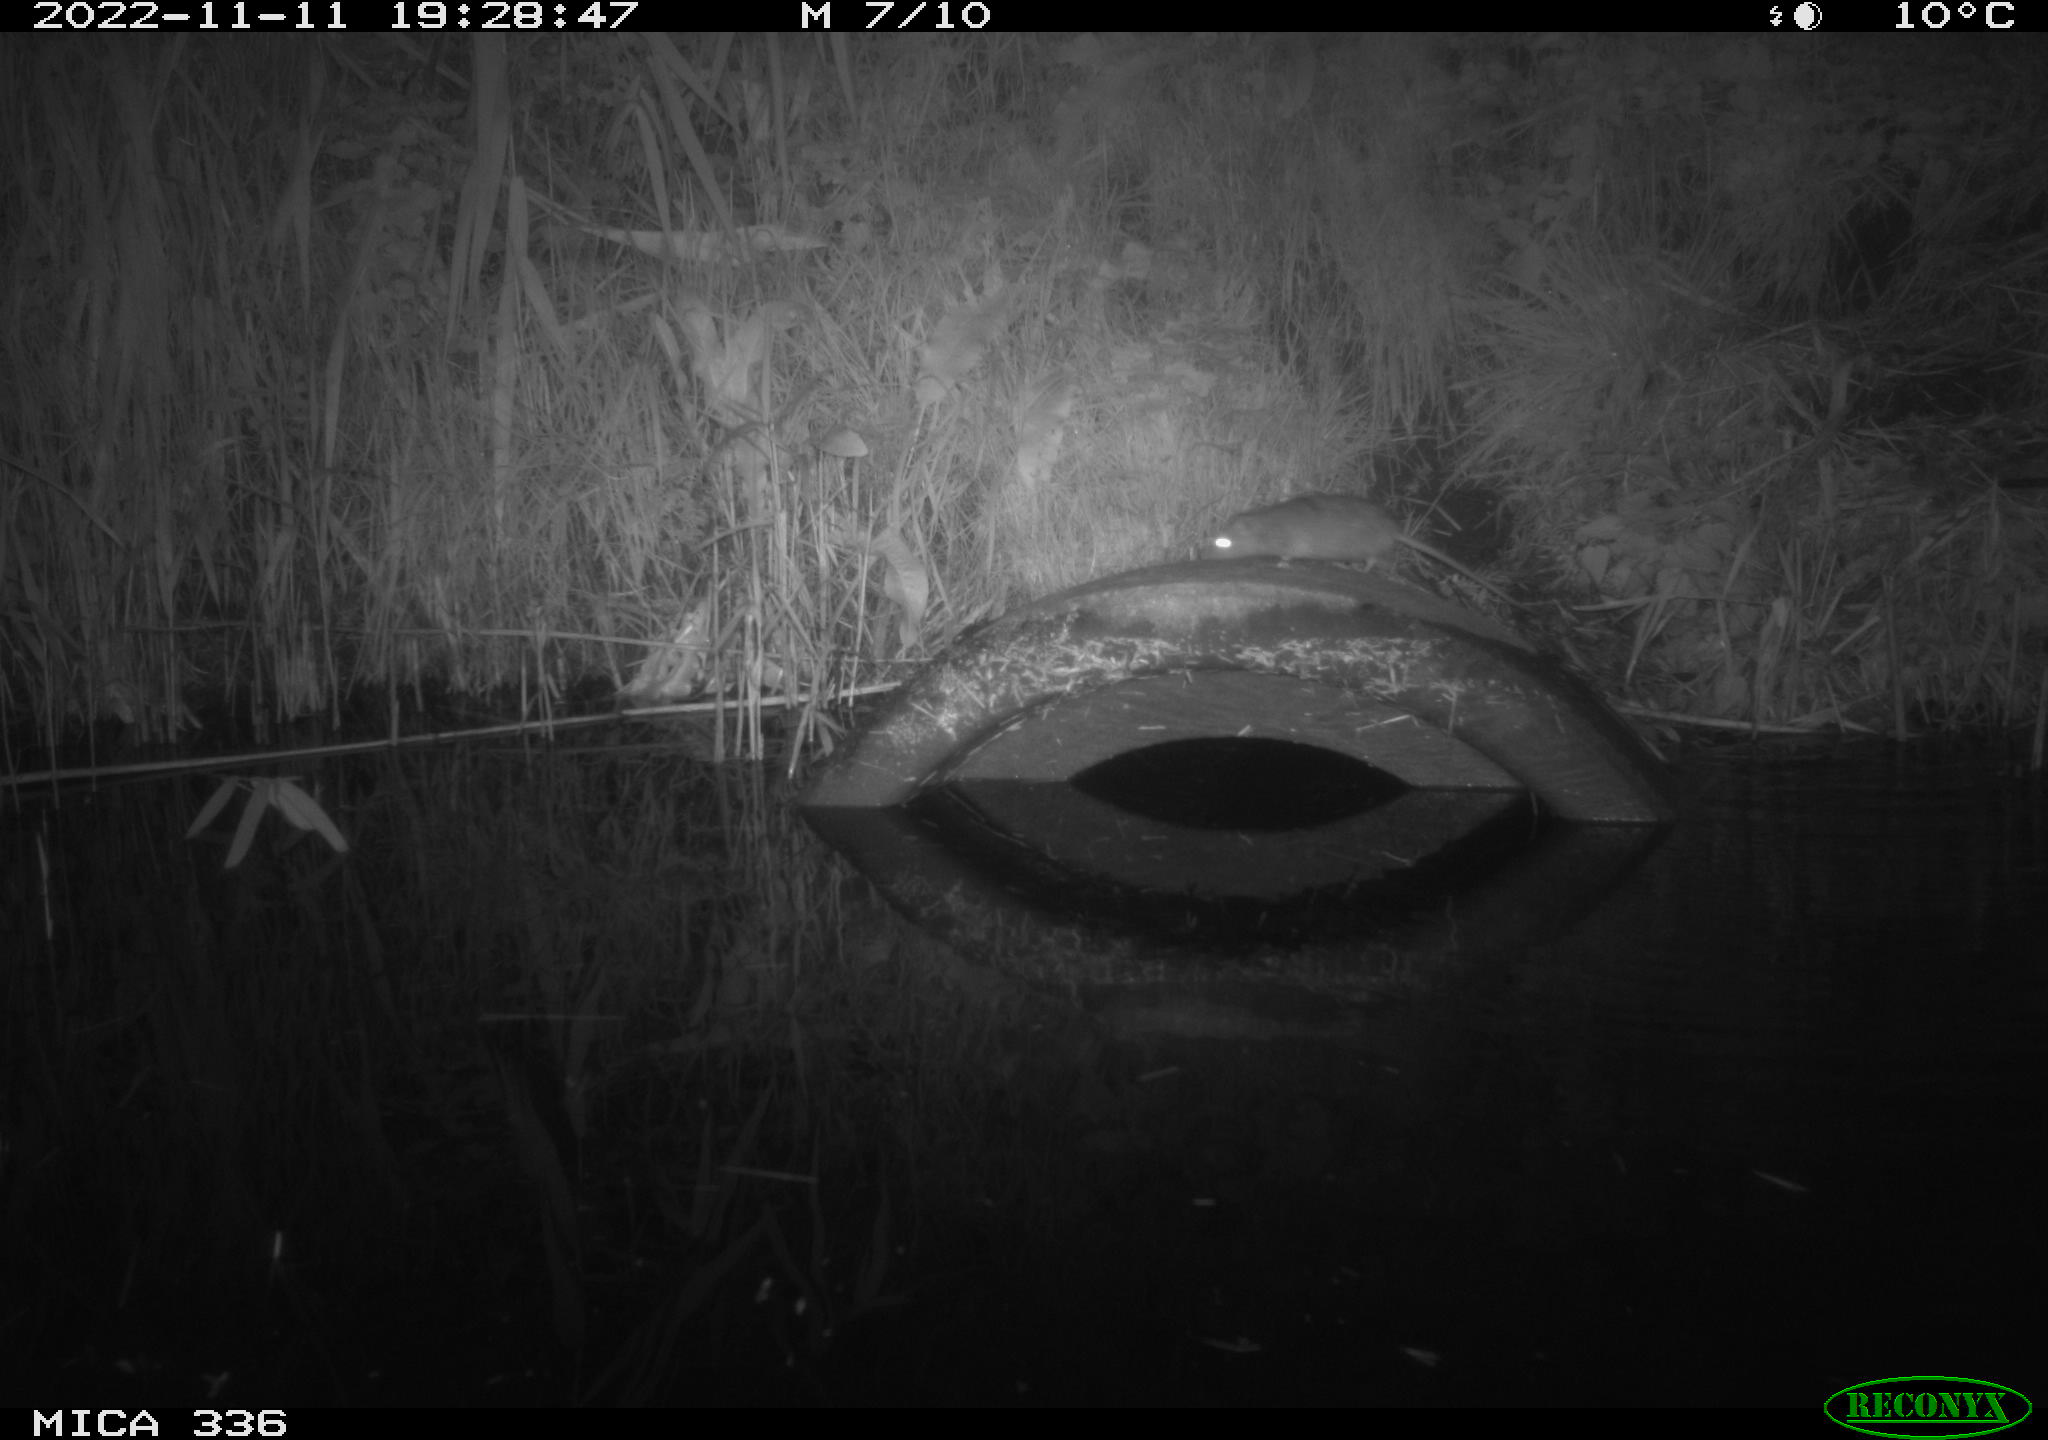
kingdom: Animalia
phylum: Chordata
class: Mammalia
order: Rodentia
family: Muridae
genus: Rattus
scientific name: Rattus norvegicus
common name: Brown rat
